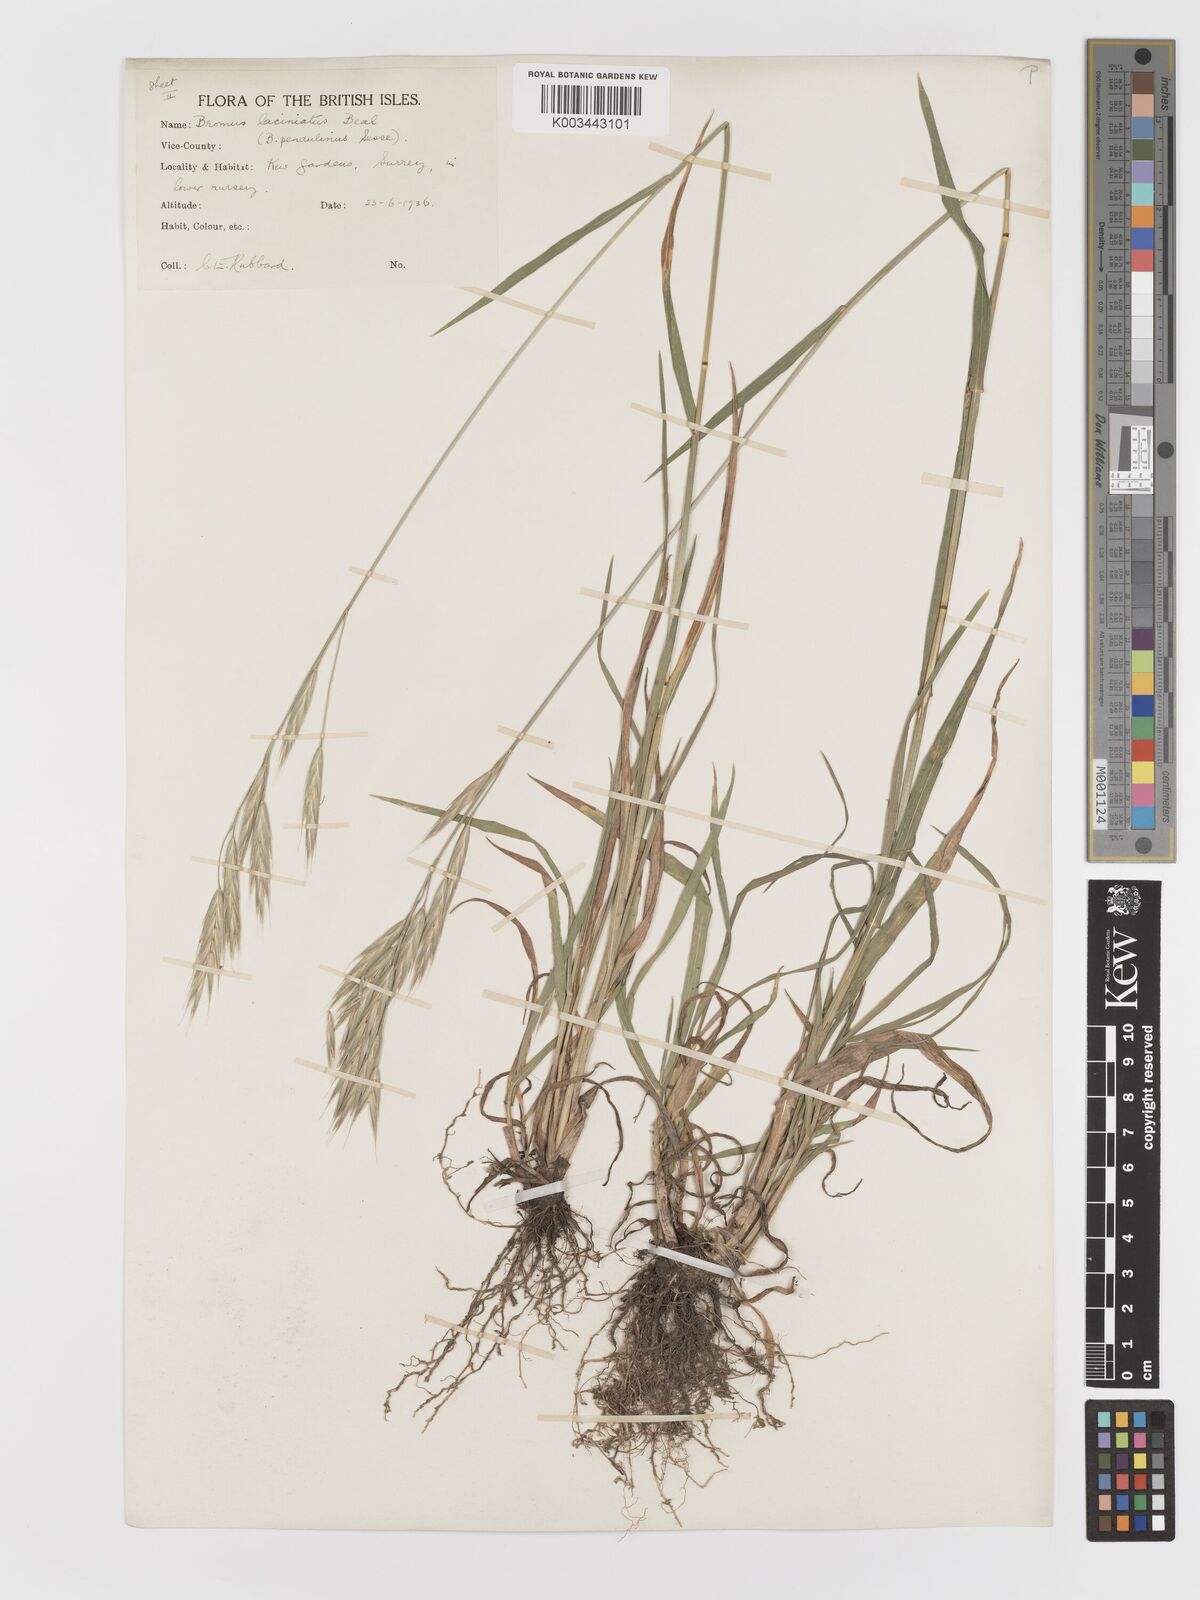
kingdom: Plantae
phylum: Tracheophyta
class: Liliopsida
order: Poales
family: Poaceae
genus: Bromus
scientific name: Bromus carinatus
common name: Mountain brome
